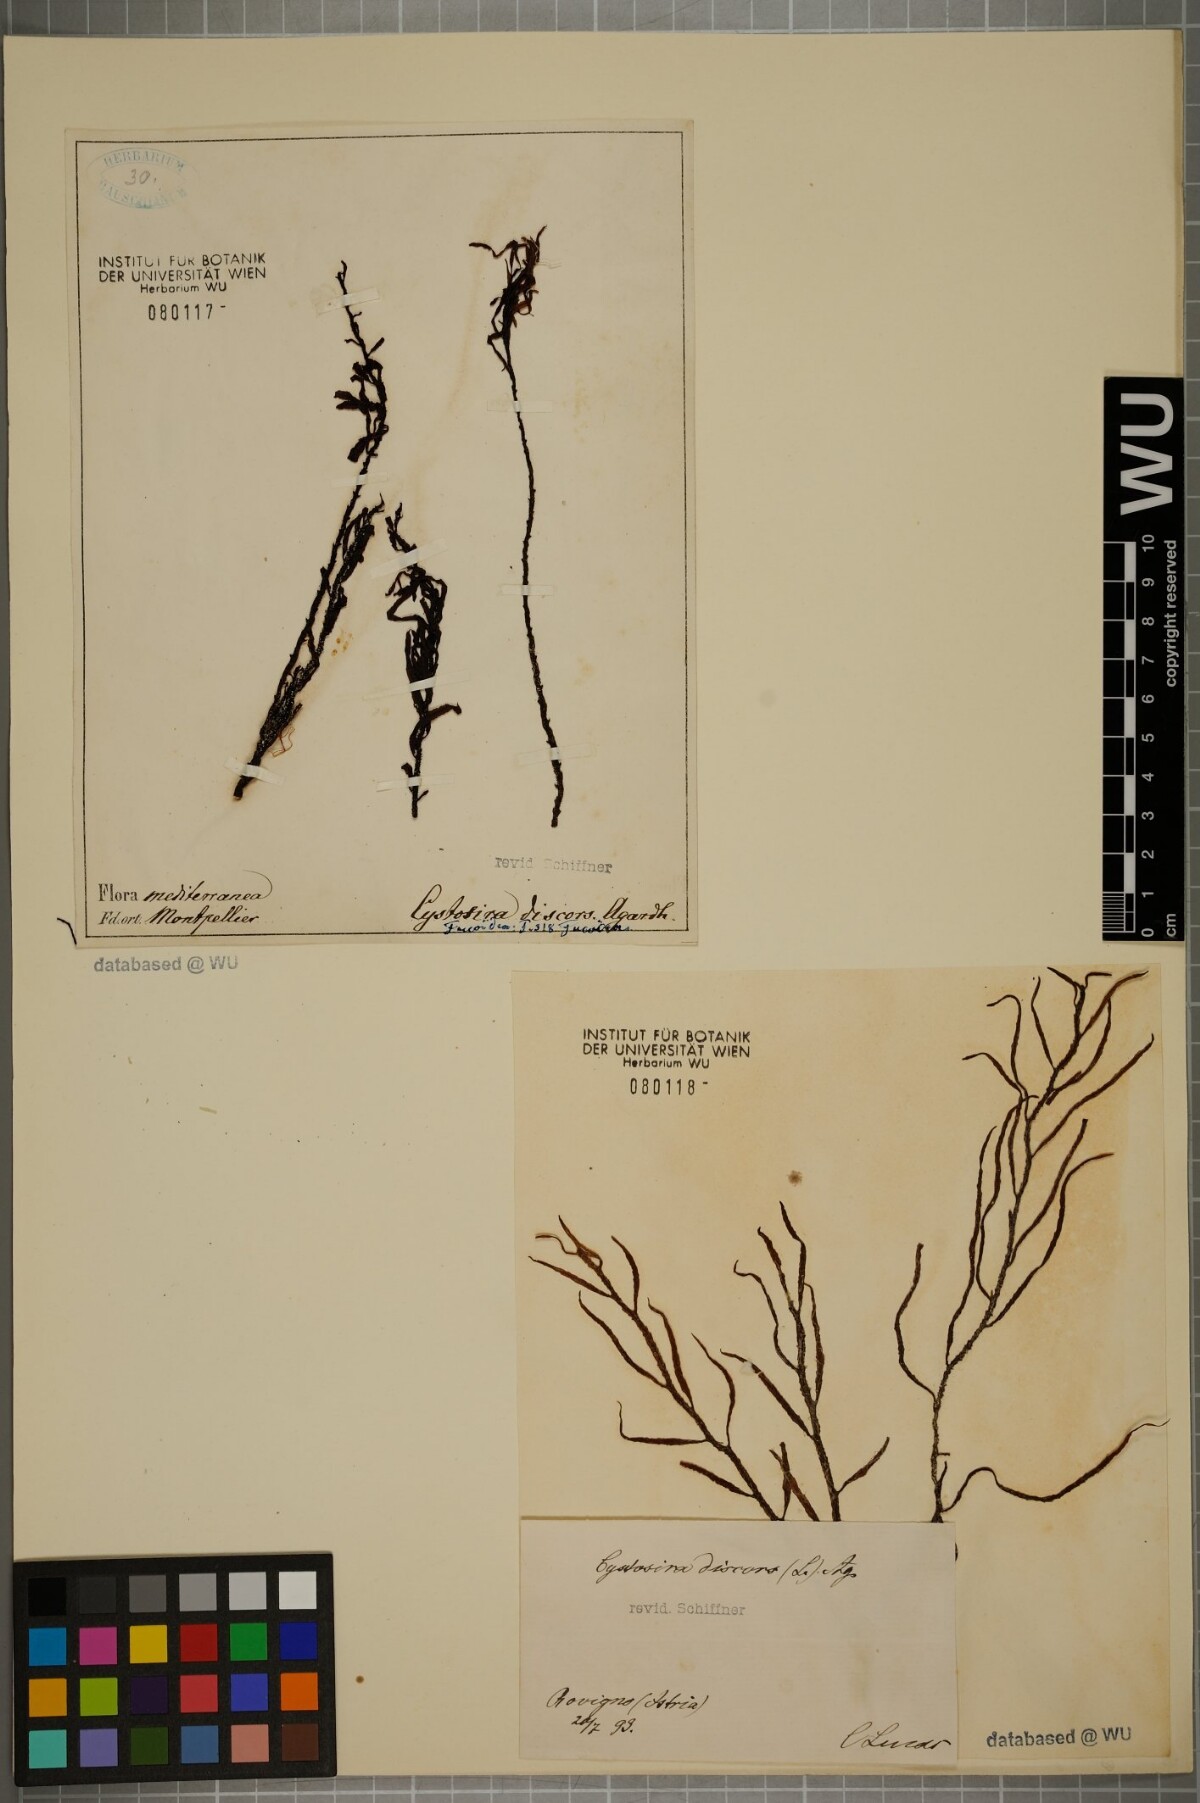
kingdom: Chromista
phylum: Ochrophyta
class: Phaeophyceae
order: Fucales
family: Sargassaceae
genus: Cystoseira
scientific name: Cystoseira foeniculacea
